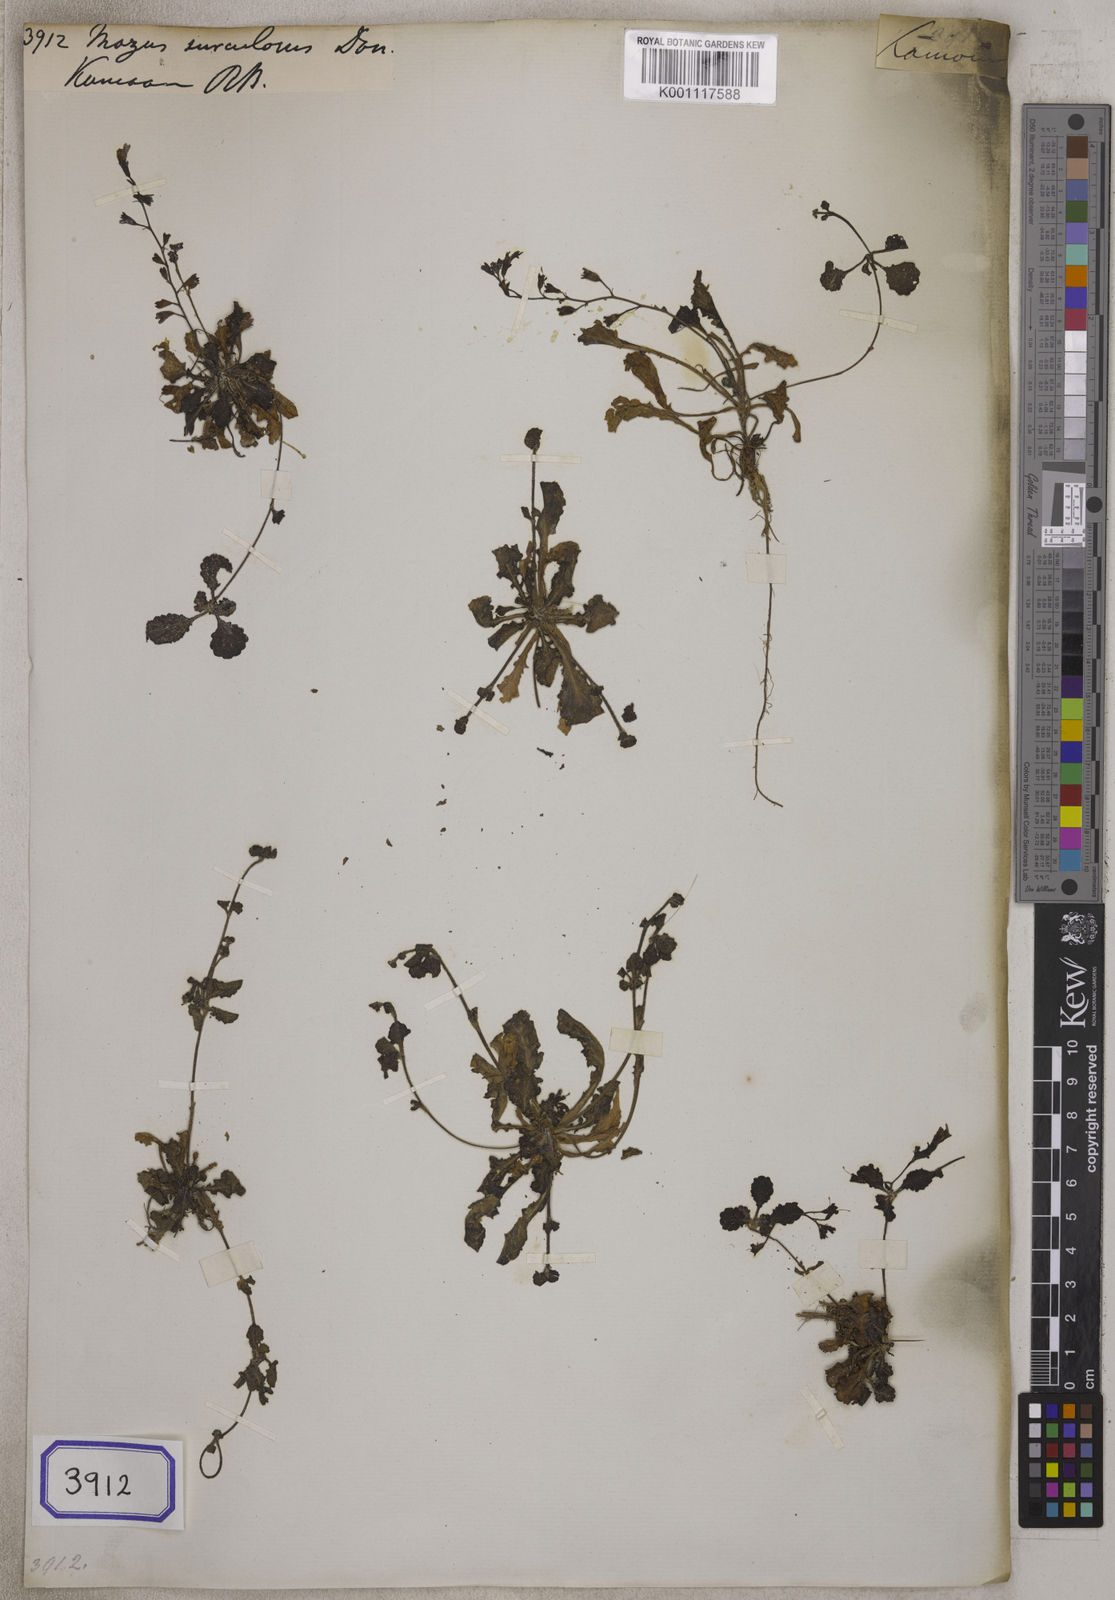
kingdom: Plantae
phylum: Tracheophyta
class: Magnoliopsida
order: Lamiales
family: Mazaceae
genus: Mazus
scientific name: Mazus surculosus
